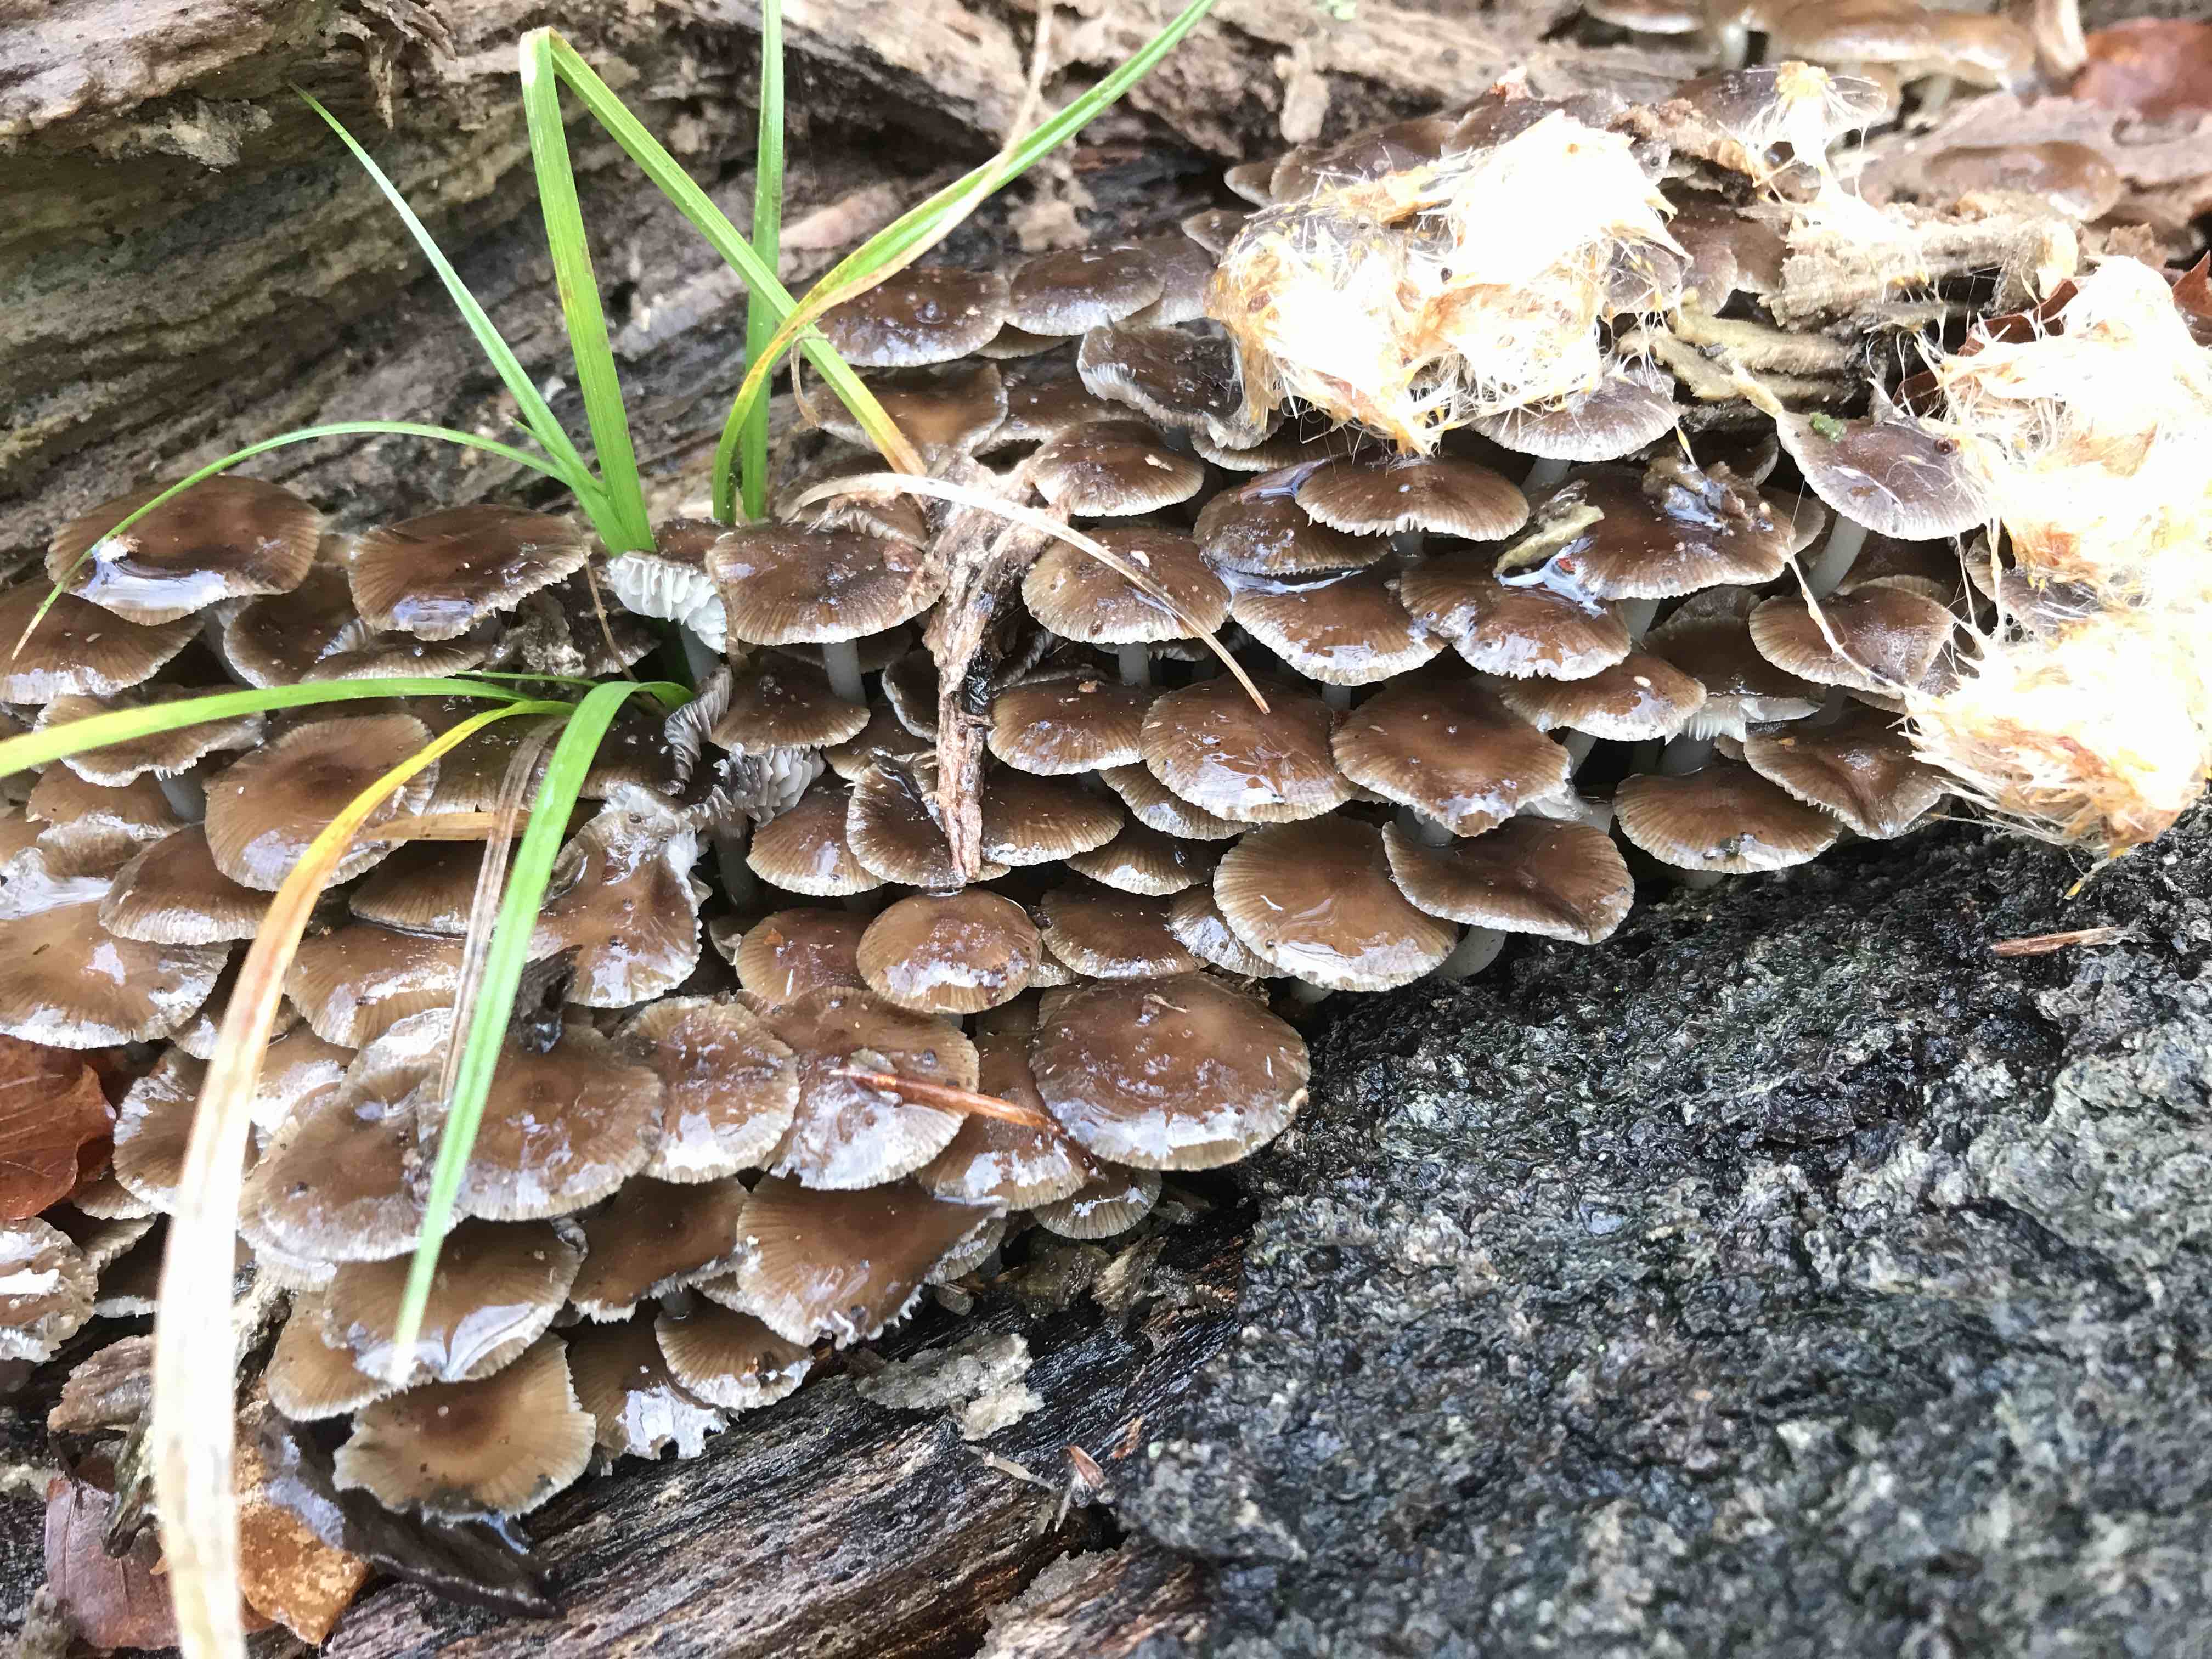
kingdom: Fungi
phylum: Basidiomycota
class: Agaricomycetes
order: Agaricales
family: Mycenaceae
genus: Mycena
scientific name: Mycena tintinnabulum
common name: vinter-huesvamp
